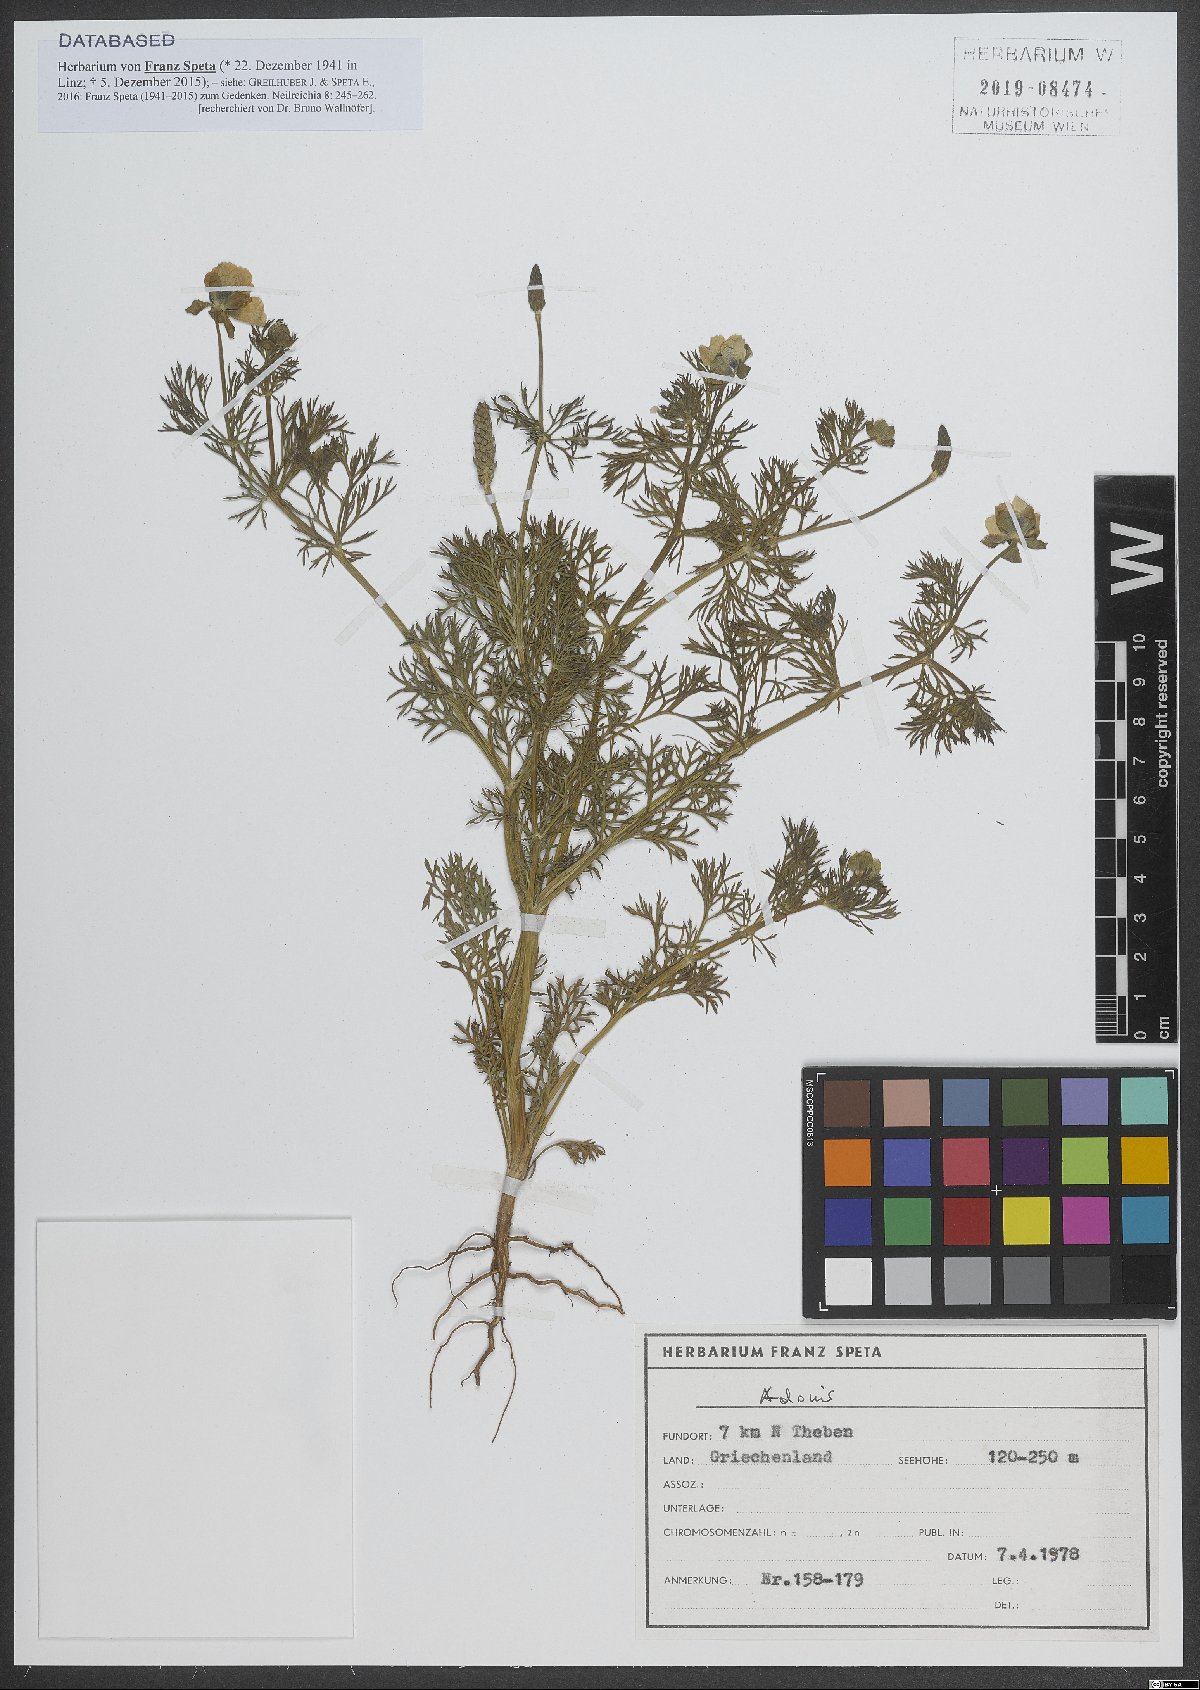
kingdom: Plantae
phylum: Tracheophyta
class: Magnoliopsida
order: Ranunculales
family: Ranunculaceae
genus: Adonis
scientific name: Adonis
